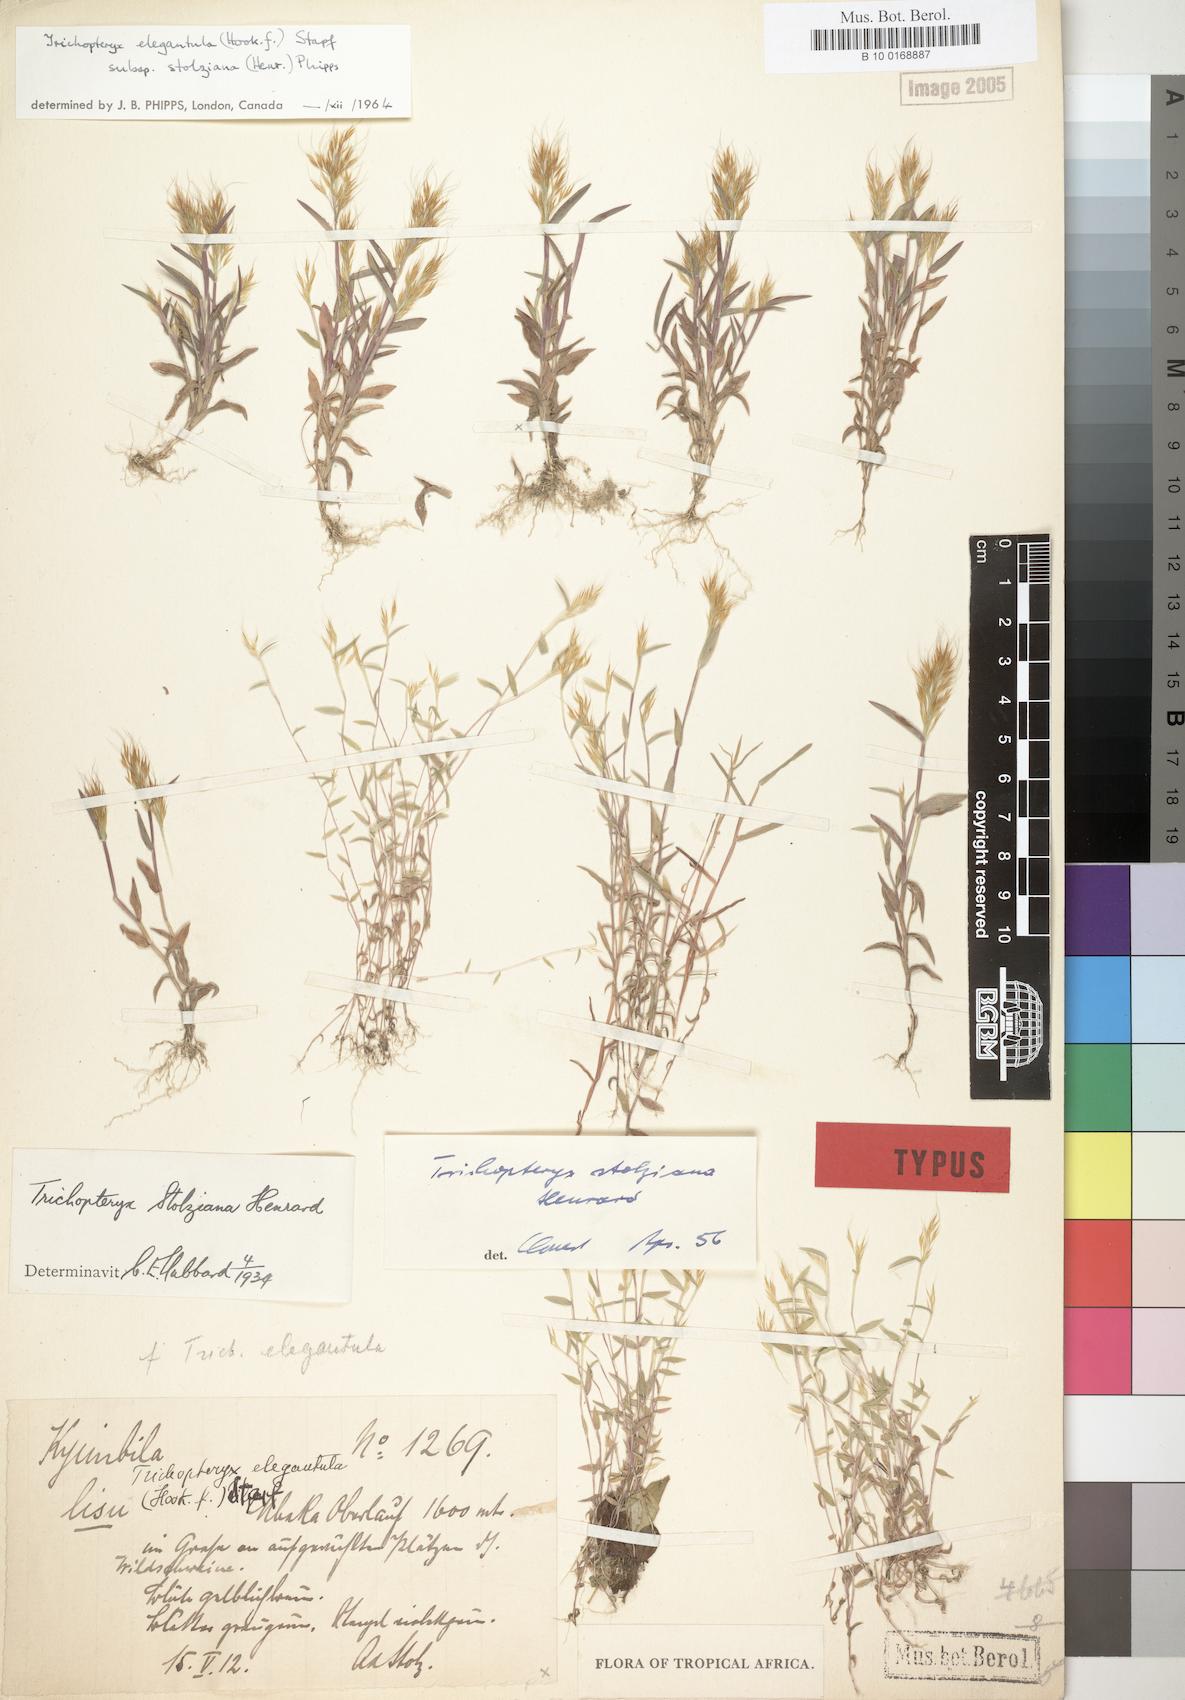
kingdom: Plantae
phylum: Tracheophyta
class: Liliopsida
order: Poales
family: Poaceae
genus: Trichopteryx
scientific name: Trichopteryx stolziana
